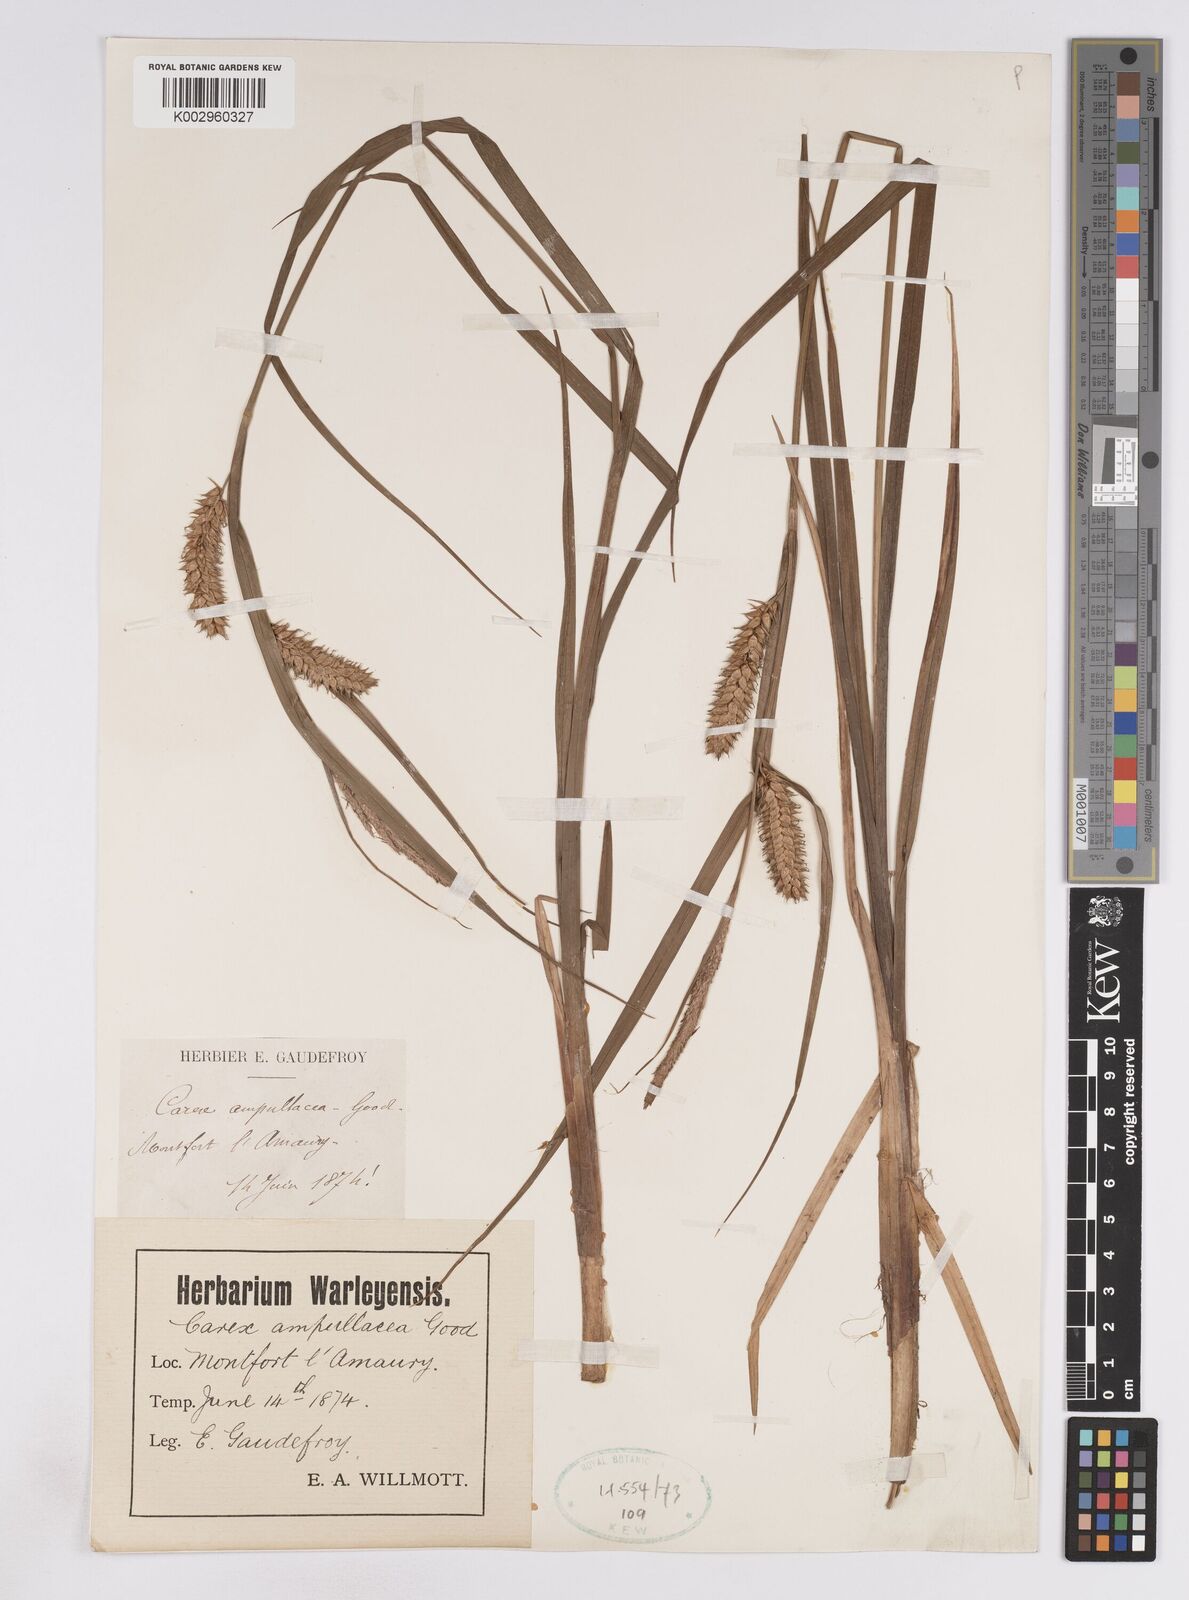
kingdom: Plantae
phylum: Tracheophyta
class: Liliopsida
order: Poales
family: Cyperaceae
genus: Carex
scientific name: Carex vesicaria
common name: Bladder-sedge
